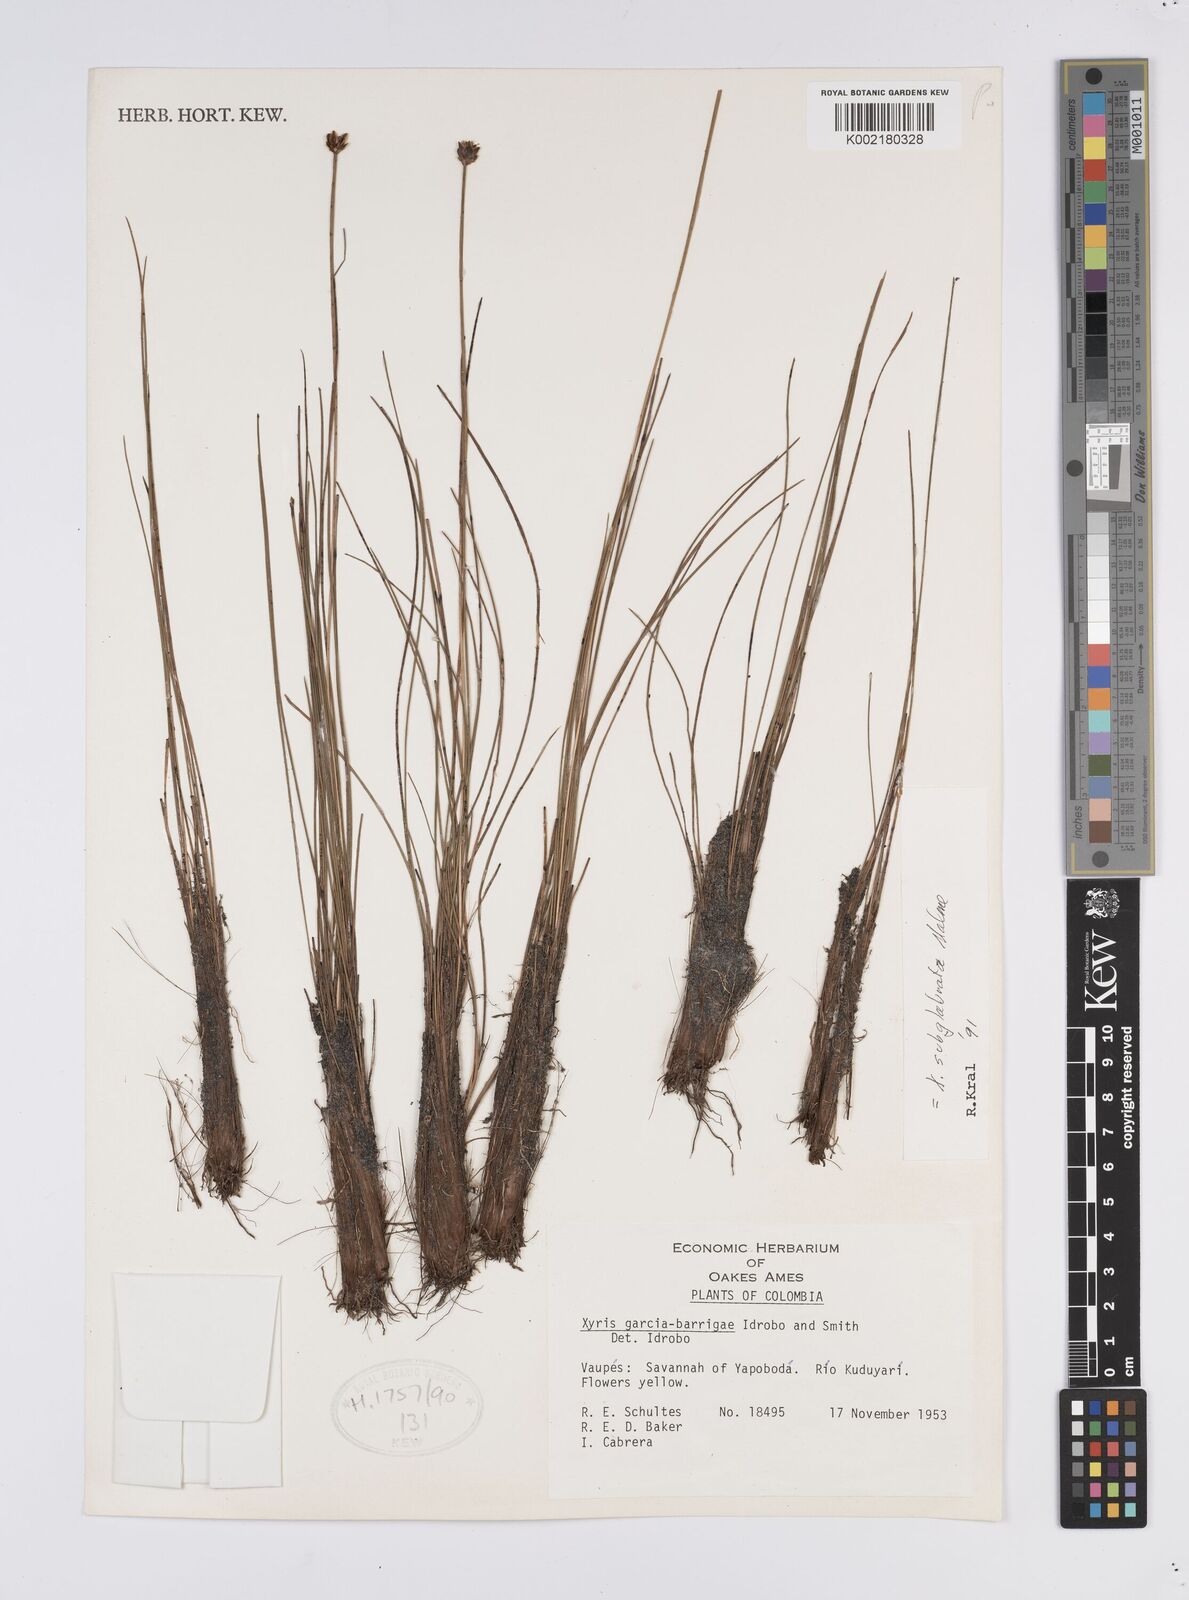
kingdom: Plantae
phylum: Tracheophyta
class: Liliopsida
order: Poales
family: Xyridaceae
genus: Xyris
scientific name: Xyris subglabrata
